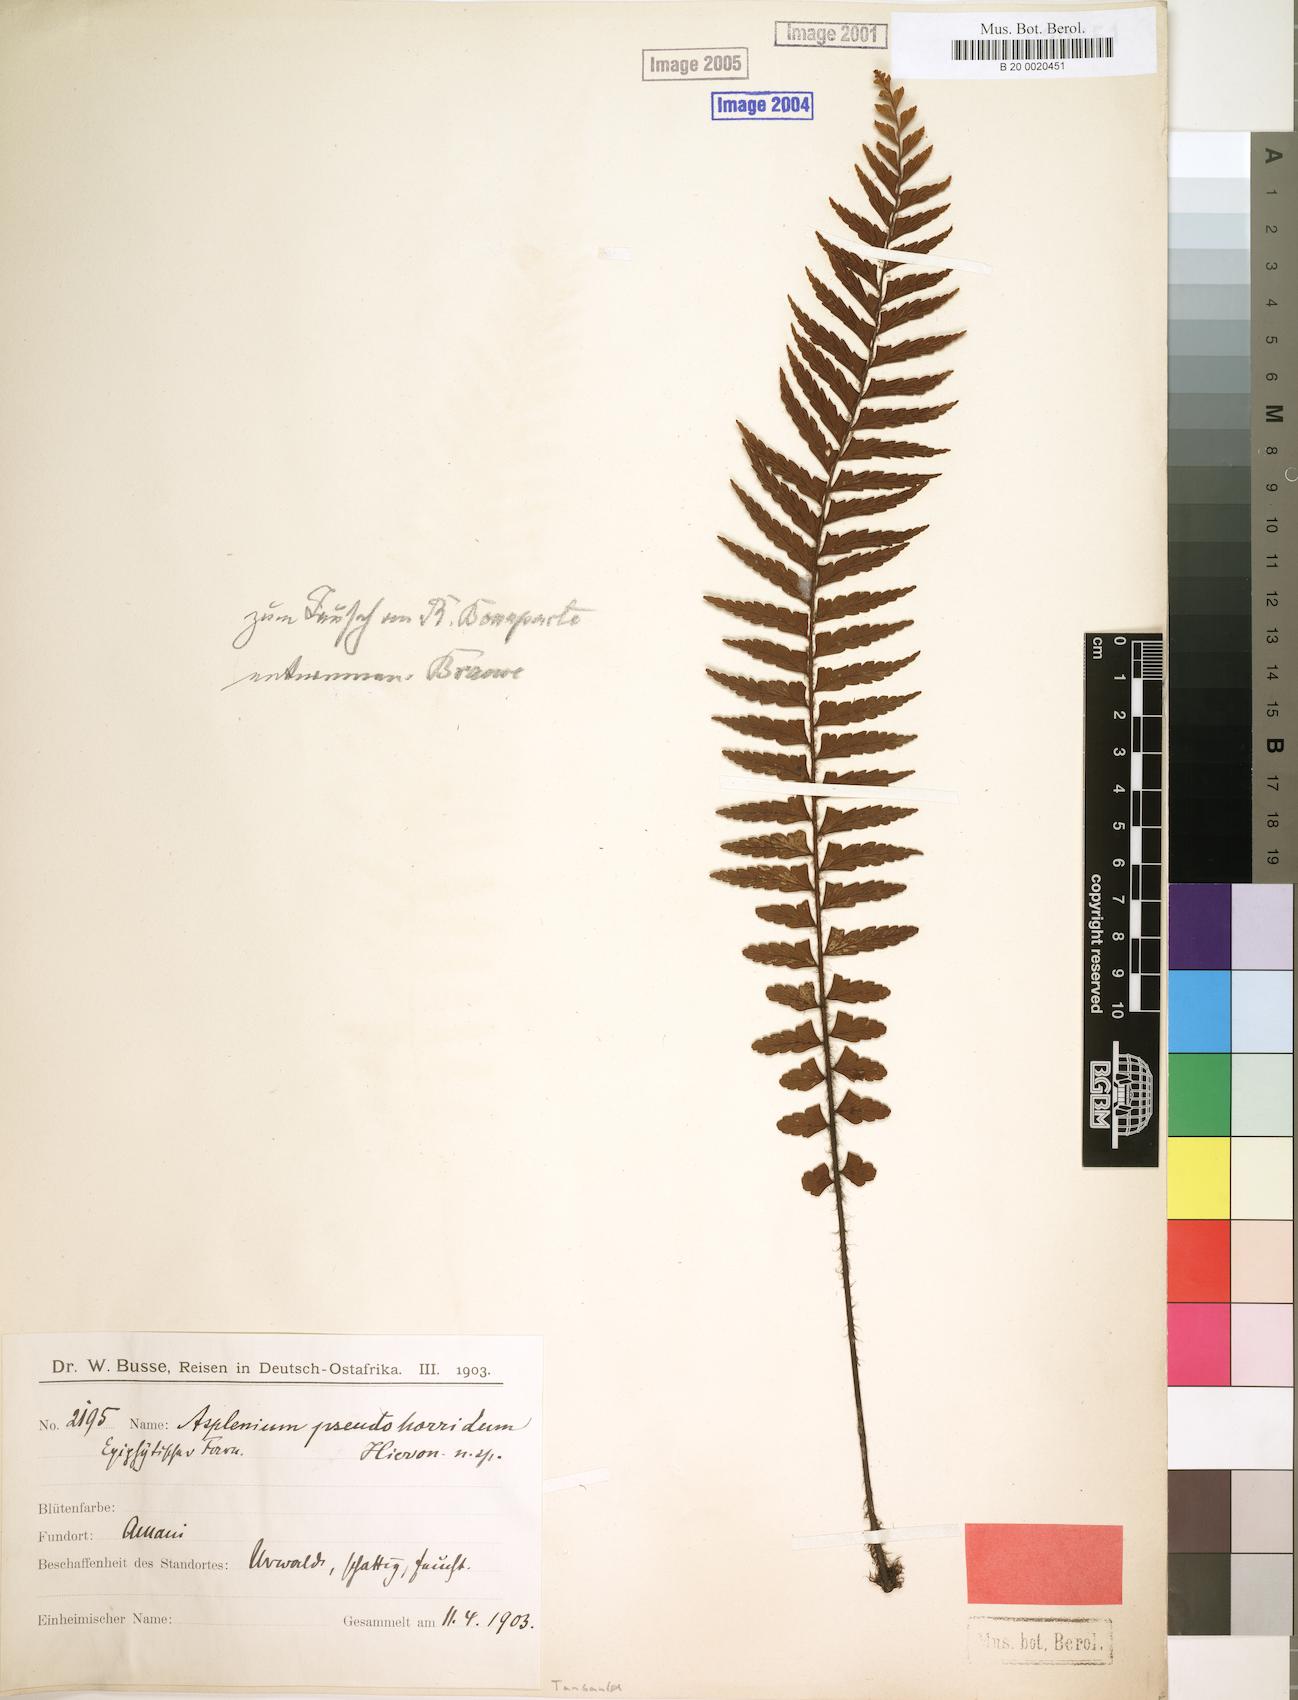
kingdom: Plantae
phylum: Tracheophyta
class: Polypodiopsida
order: Polypodiales
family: Aspleniaceae
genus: Asplenium
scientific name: Asplenium pellucidum
